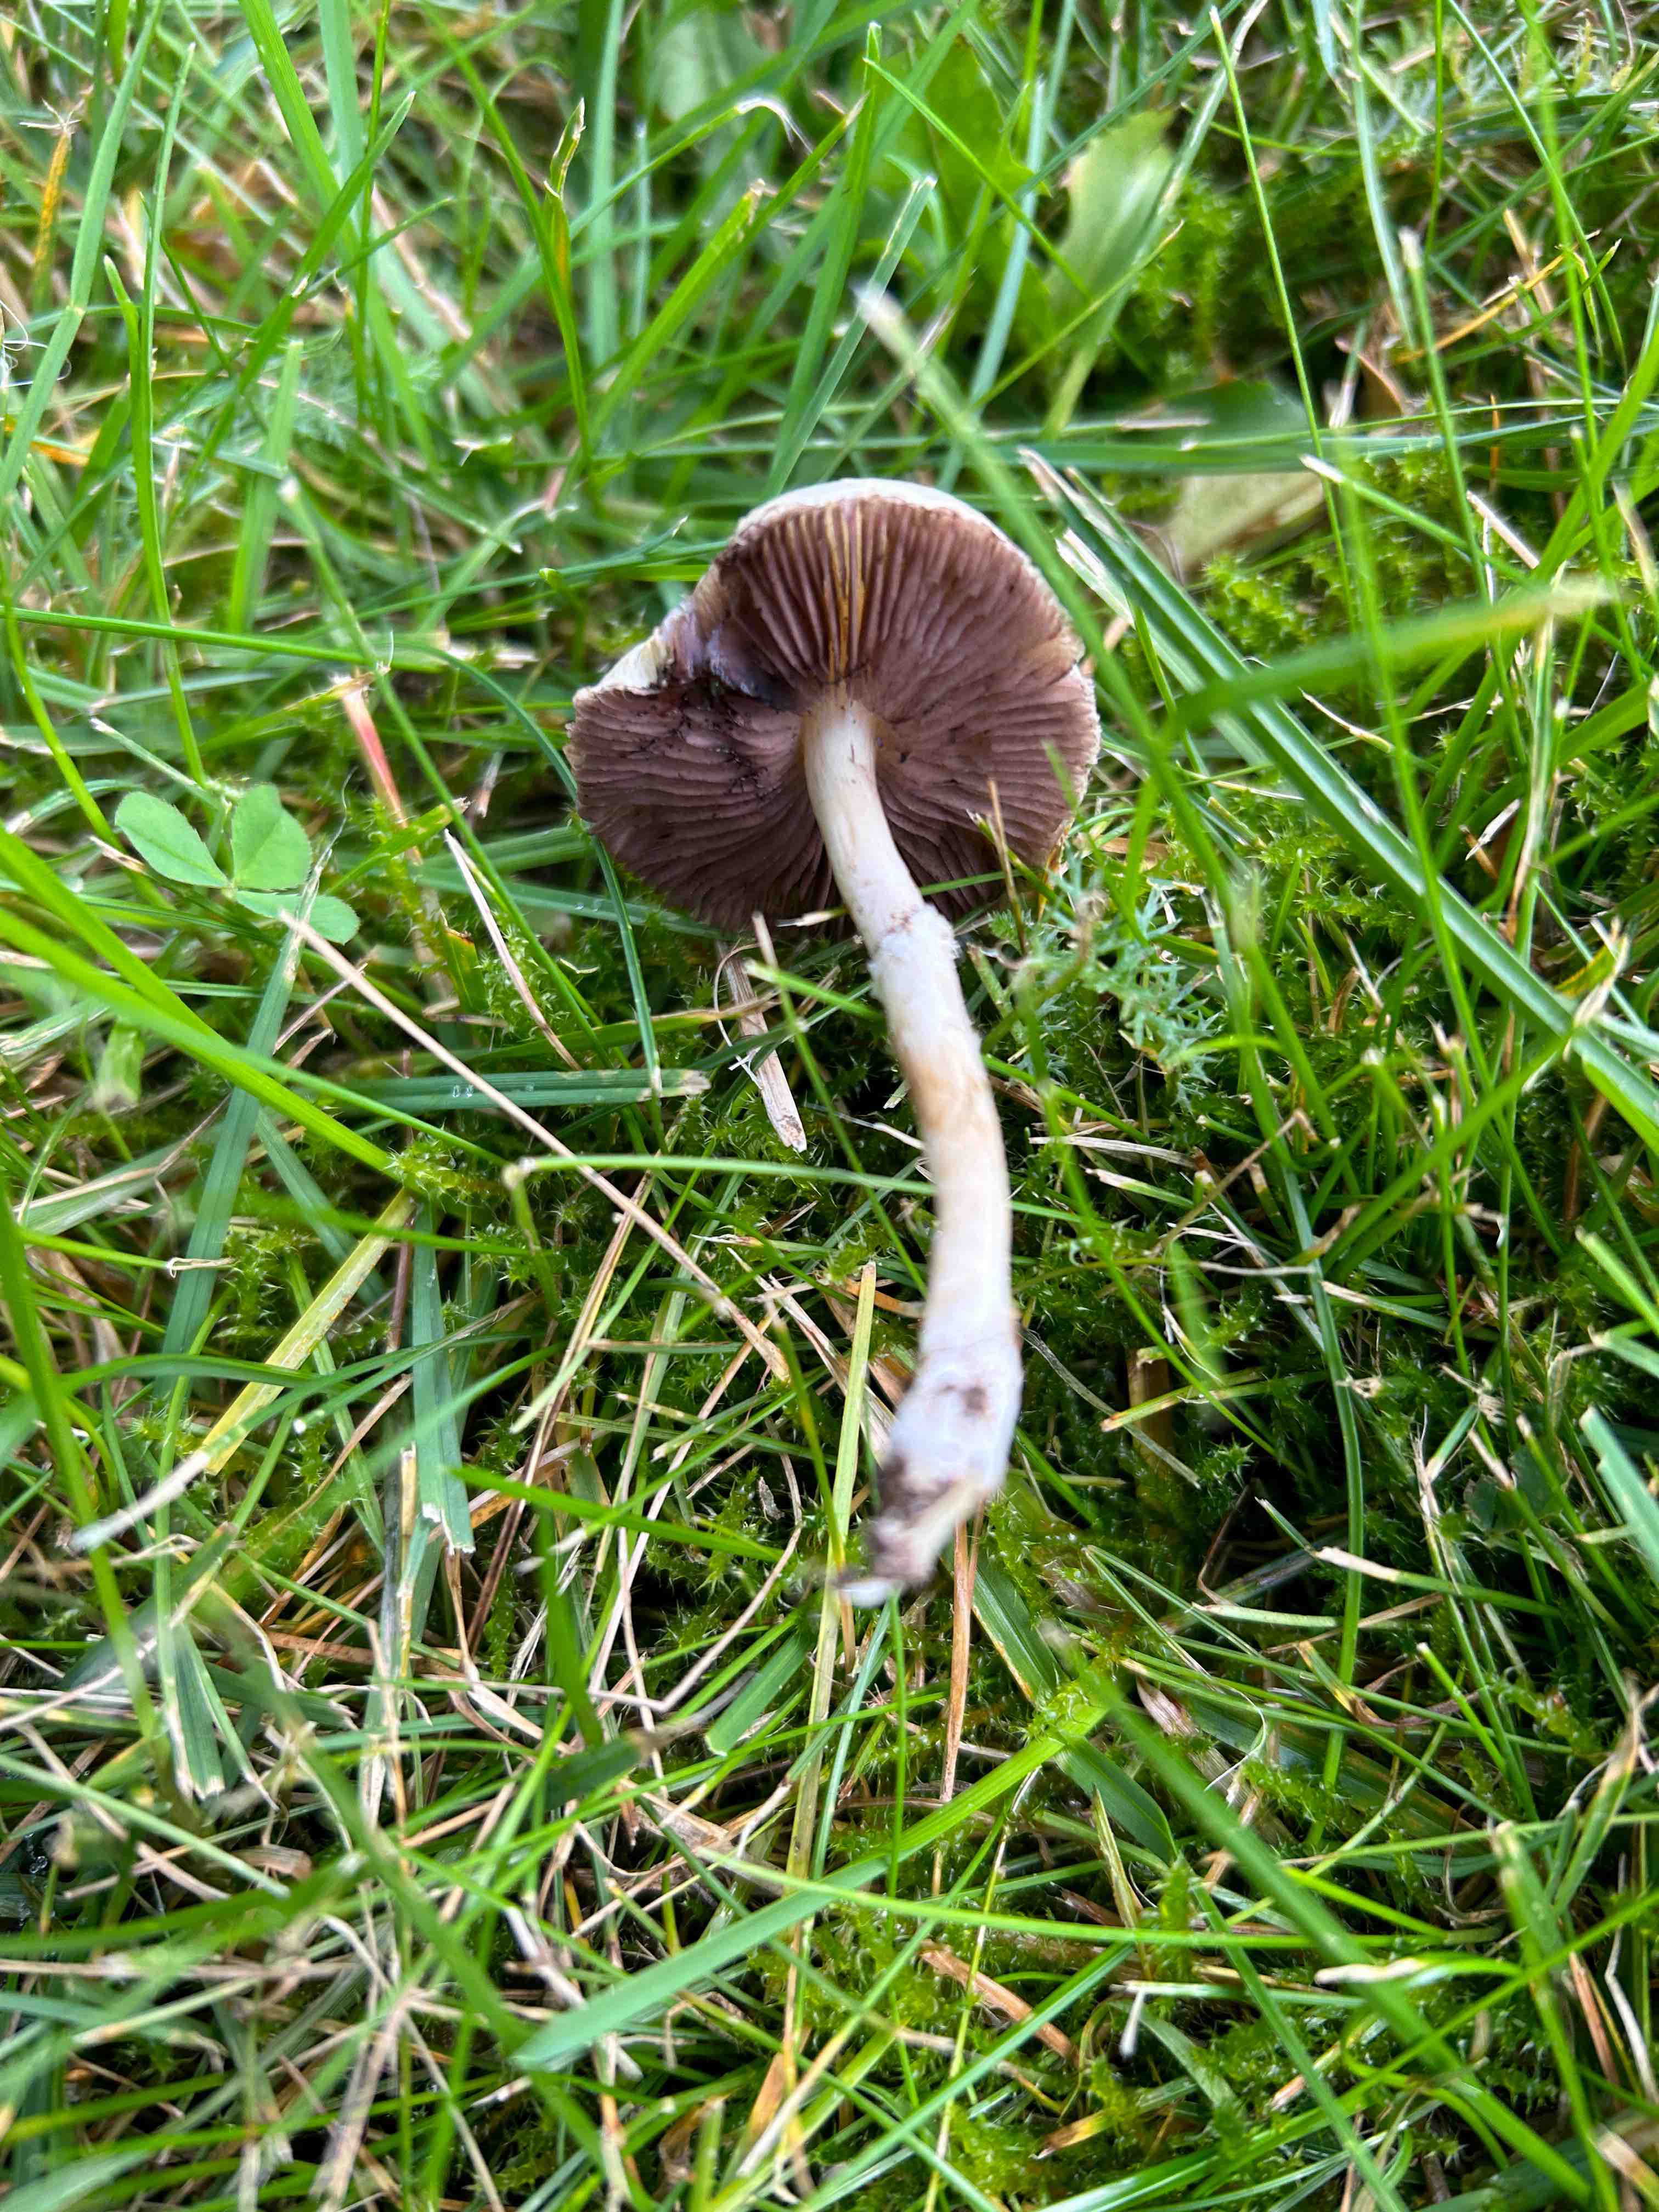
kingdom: Fungi
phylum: Basidiomycota
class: Agaricomycetes
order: Agaricales
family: Hymenogastraceae
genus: Psilocybe
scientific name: Psilocybe coronilla
